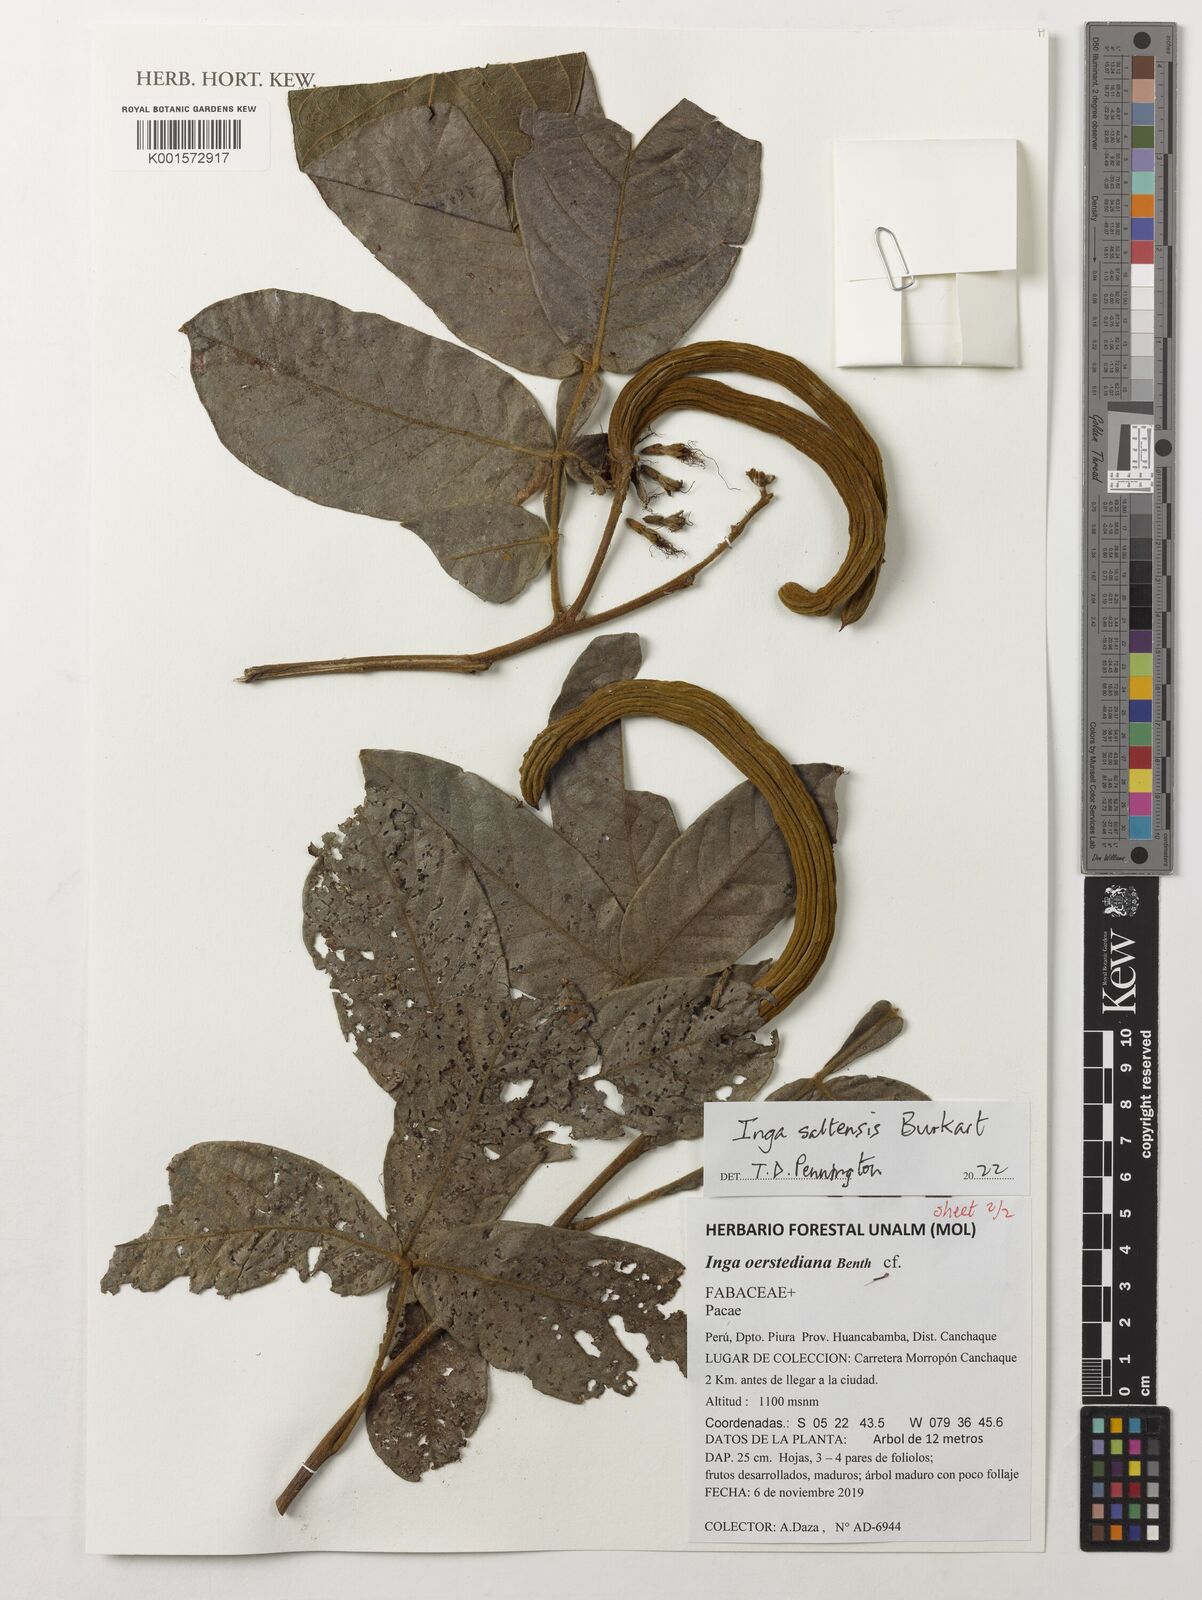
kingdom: Plantae
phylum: Tracheophyta
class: Magnoliopsida
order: Fabales
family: Fabaceae
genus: Inga
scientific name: Inga saltensis
